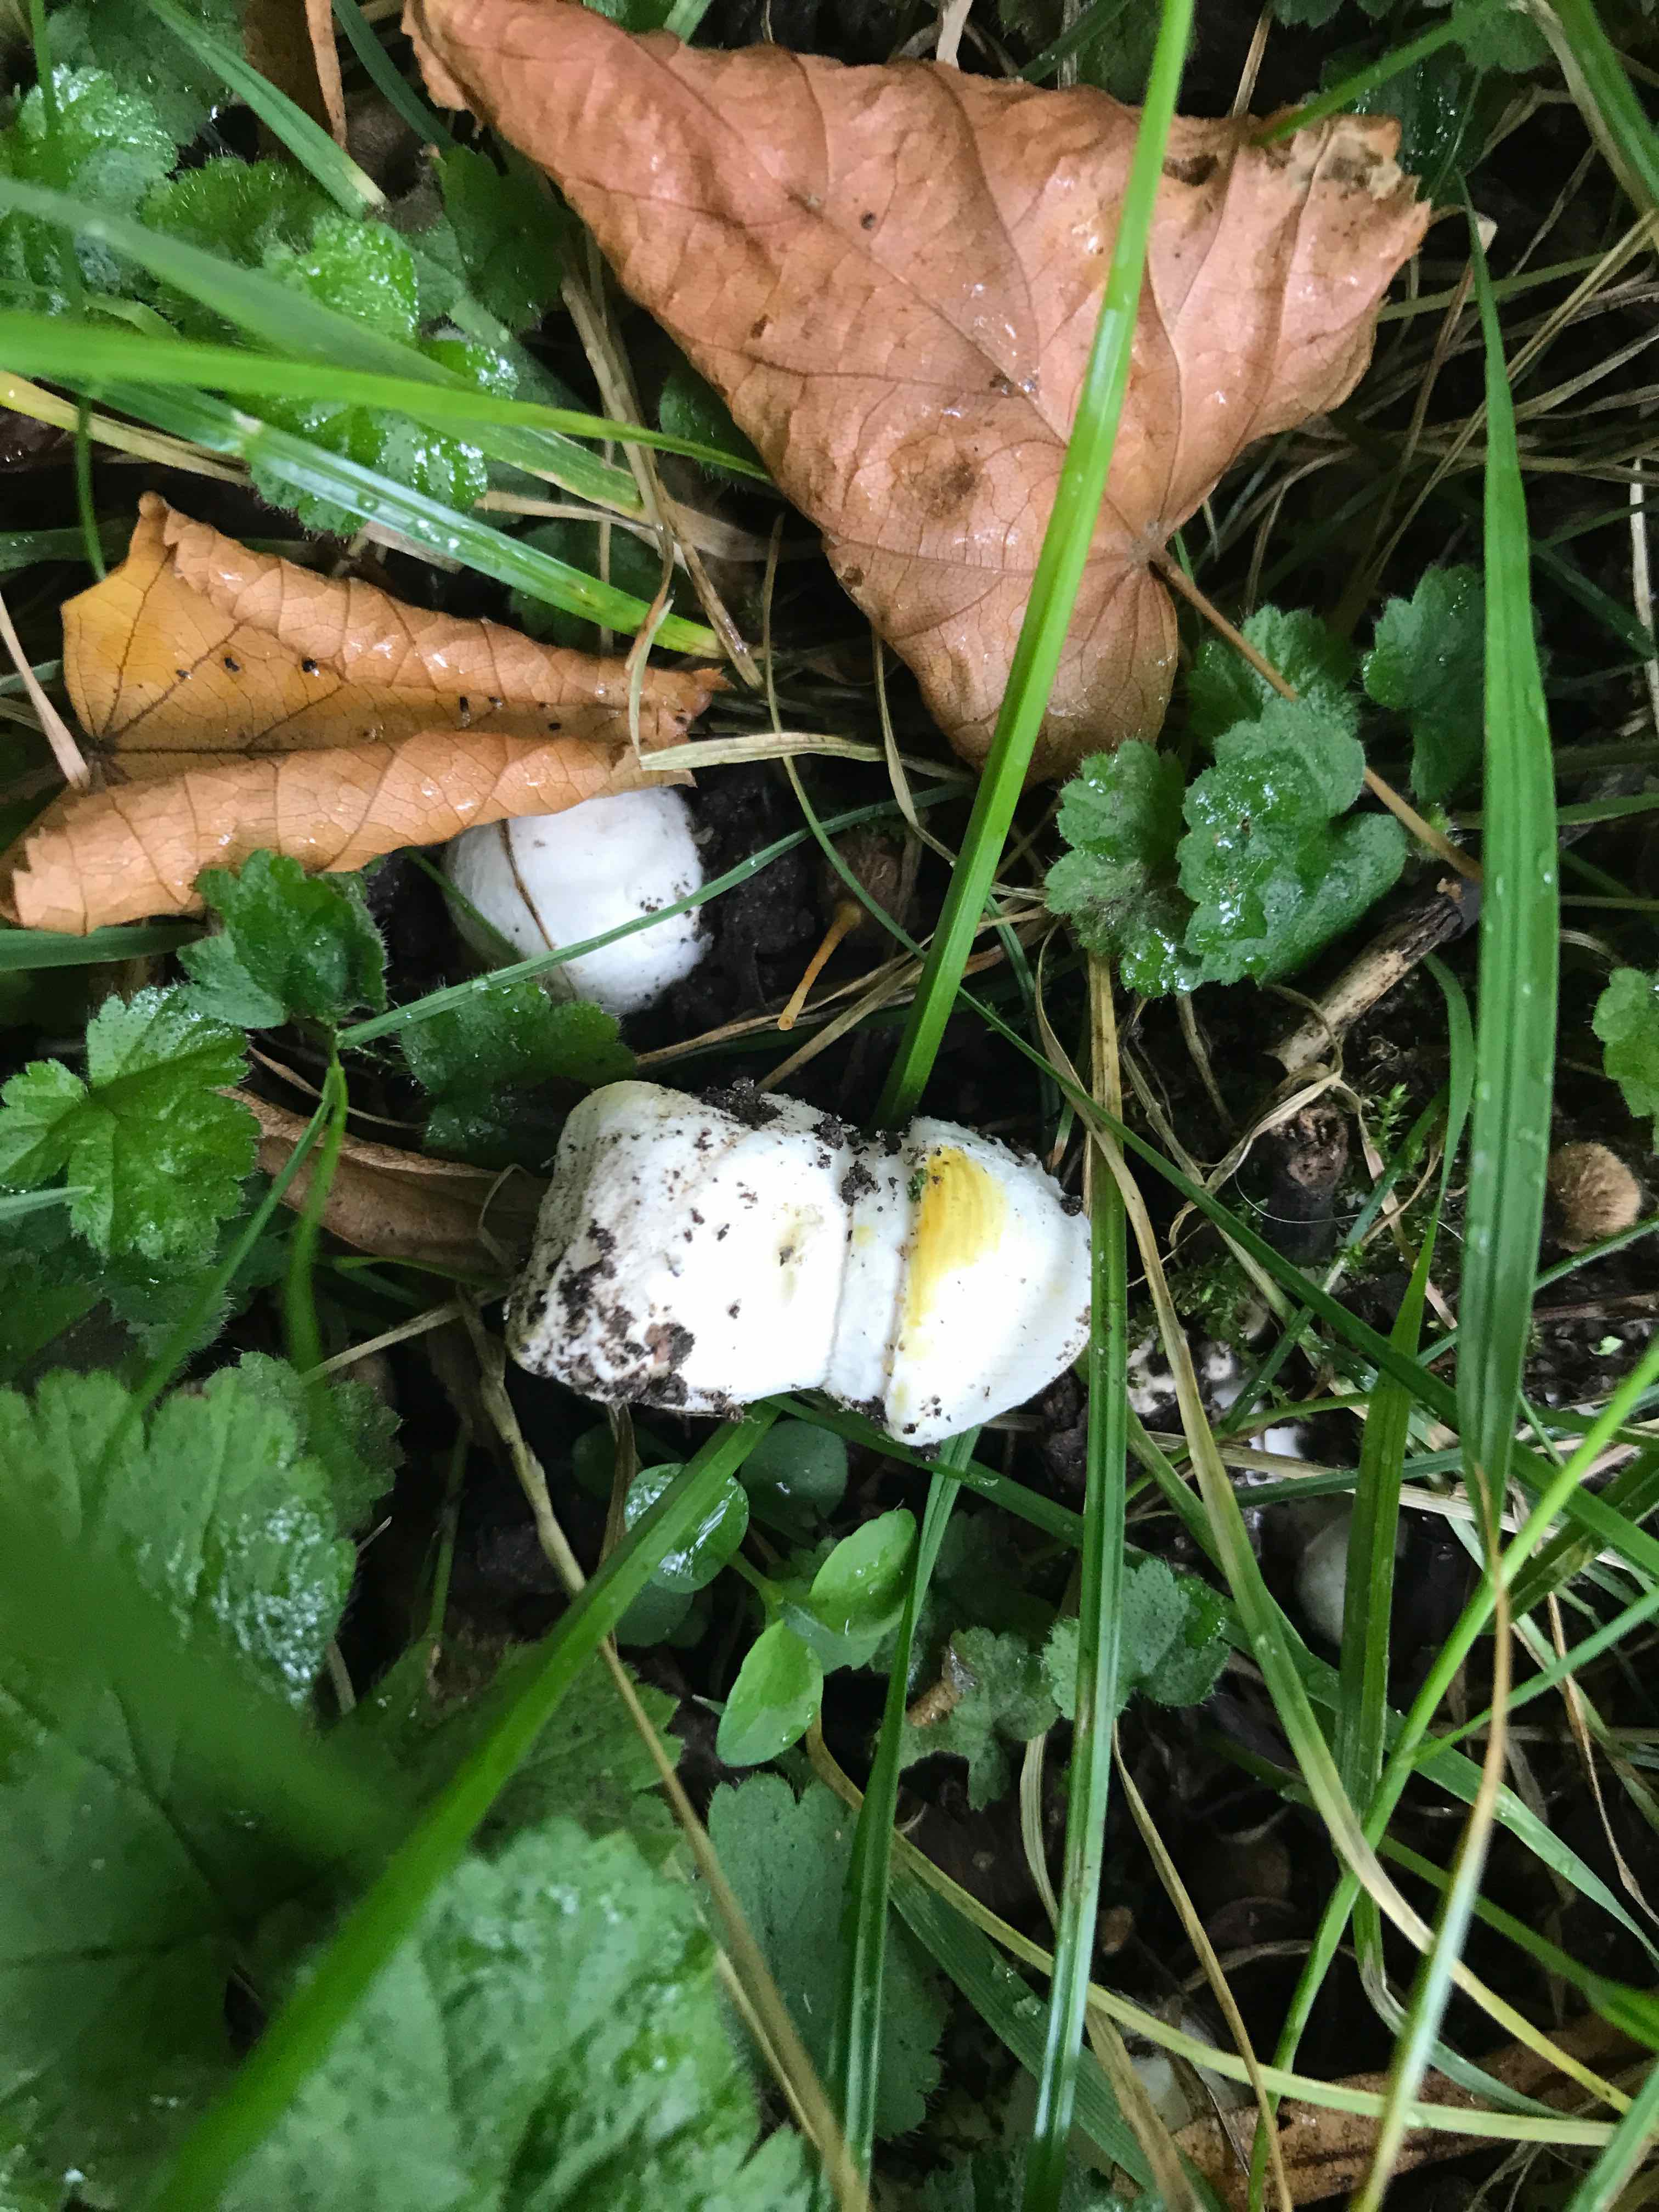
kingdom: Fungi
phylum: Basidiomycota
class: Agaricomycetes
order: Agaricales
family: Agaricaceae
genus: Agaricus
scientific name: Agaricus xanthodermus
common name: karbol-champignon
